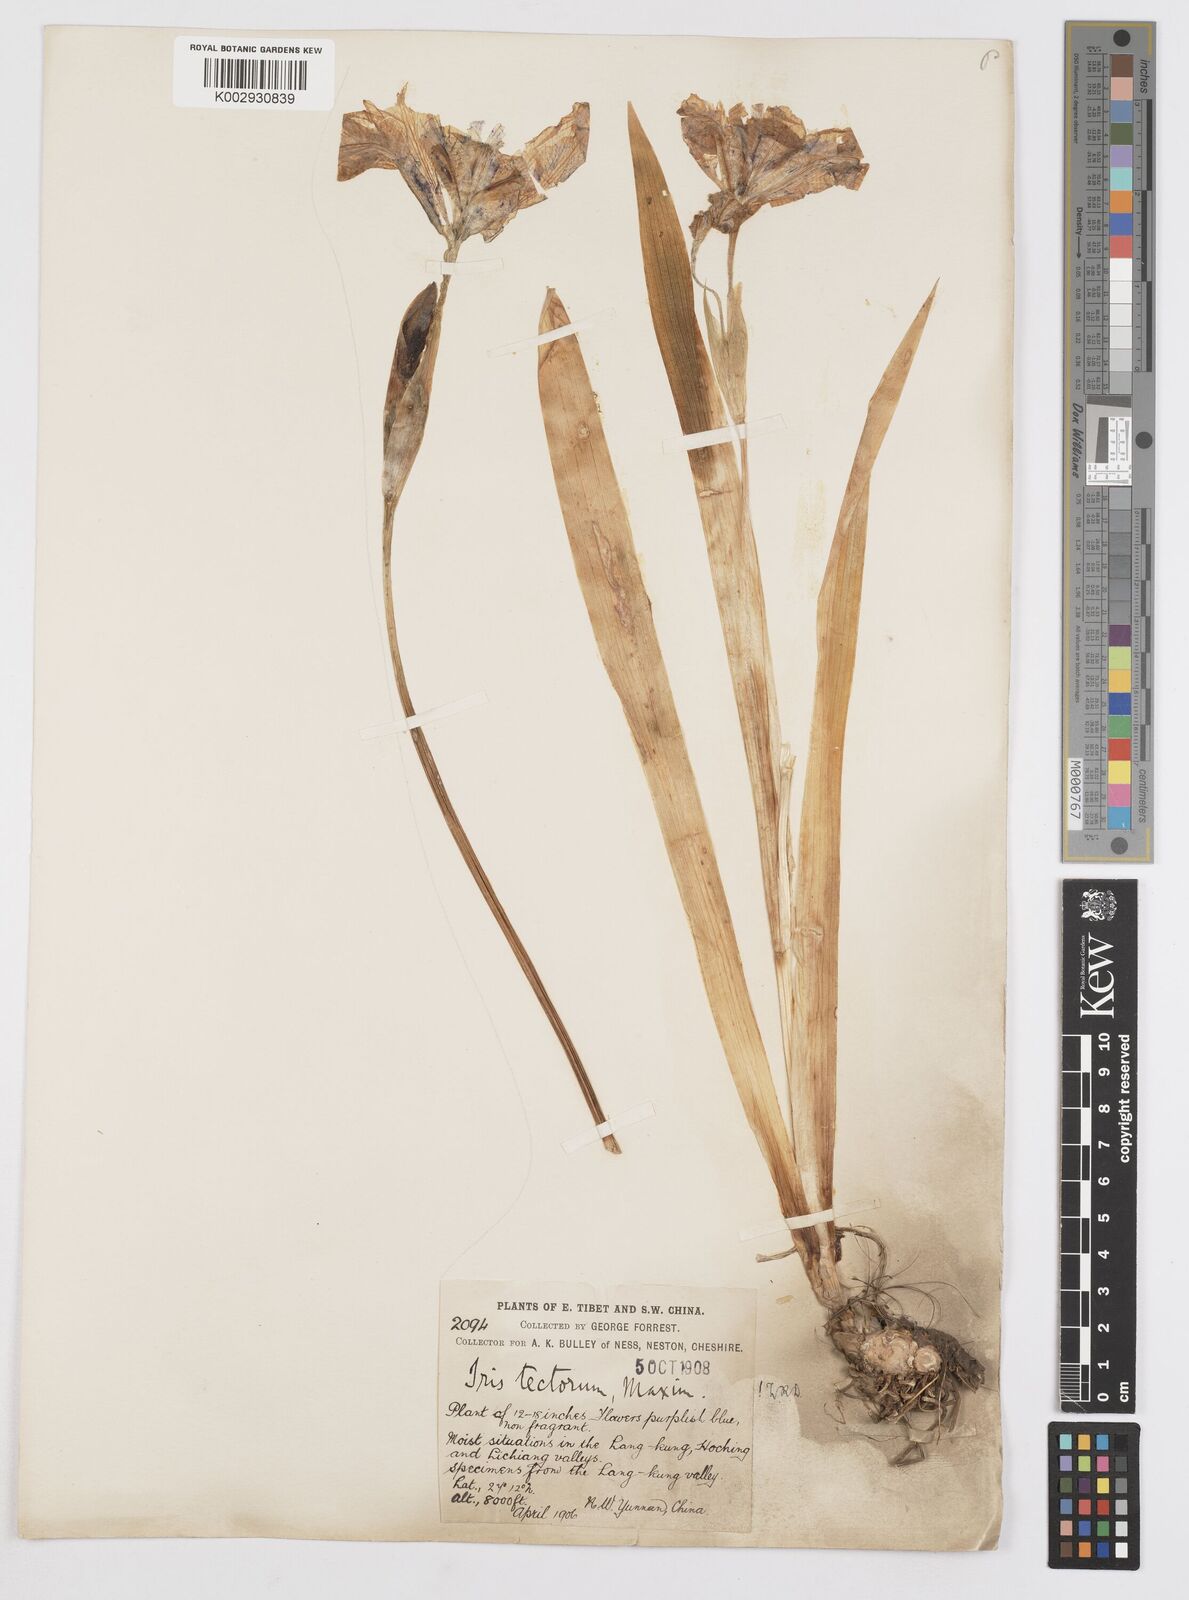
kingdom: Plantae
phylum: Tracheophyta
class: Liliopsida
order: Asparagales
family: Iridaceae
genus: Iris
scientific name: Iris tectorum
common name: Wall iris
